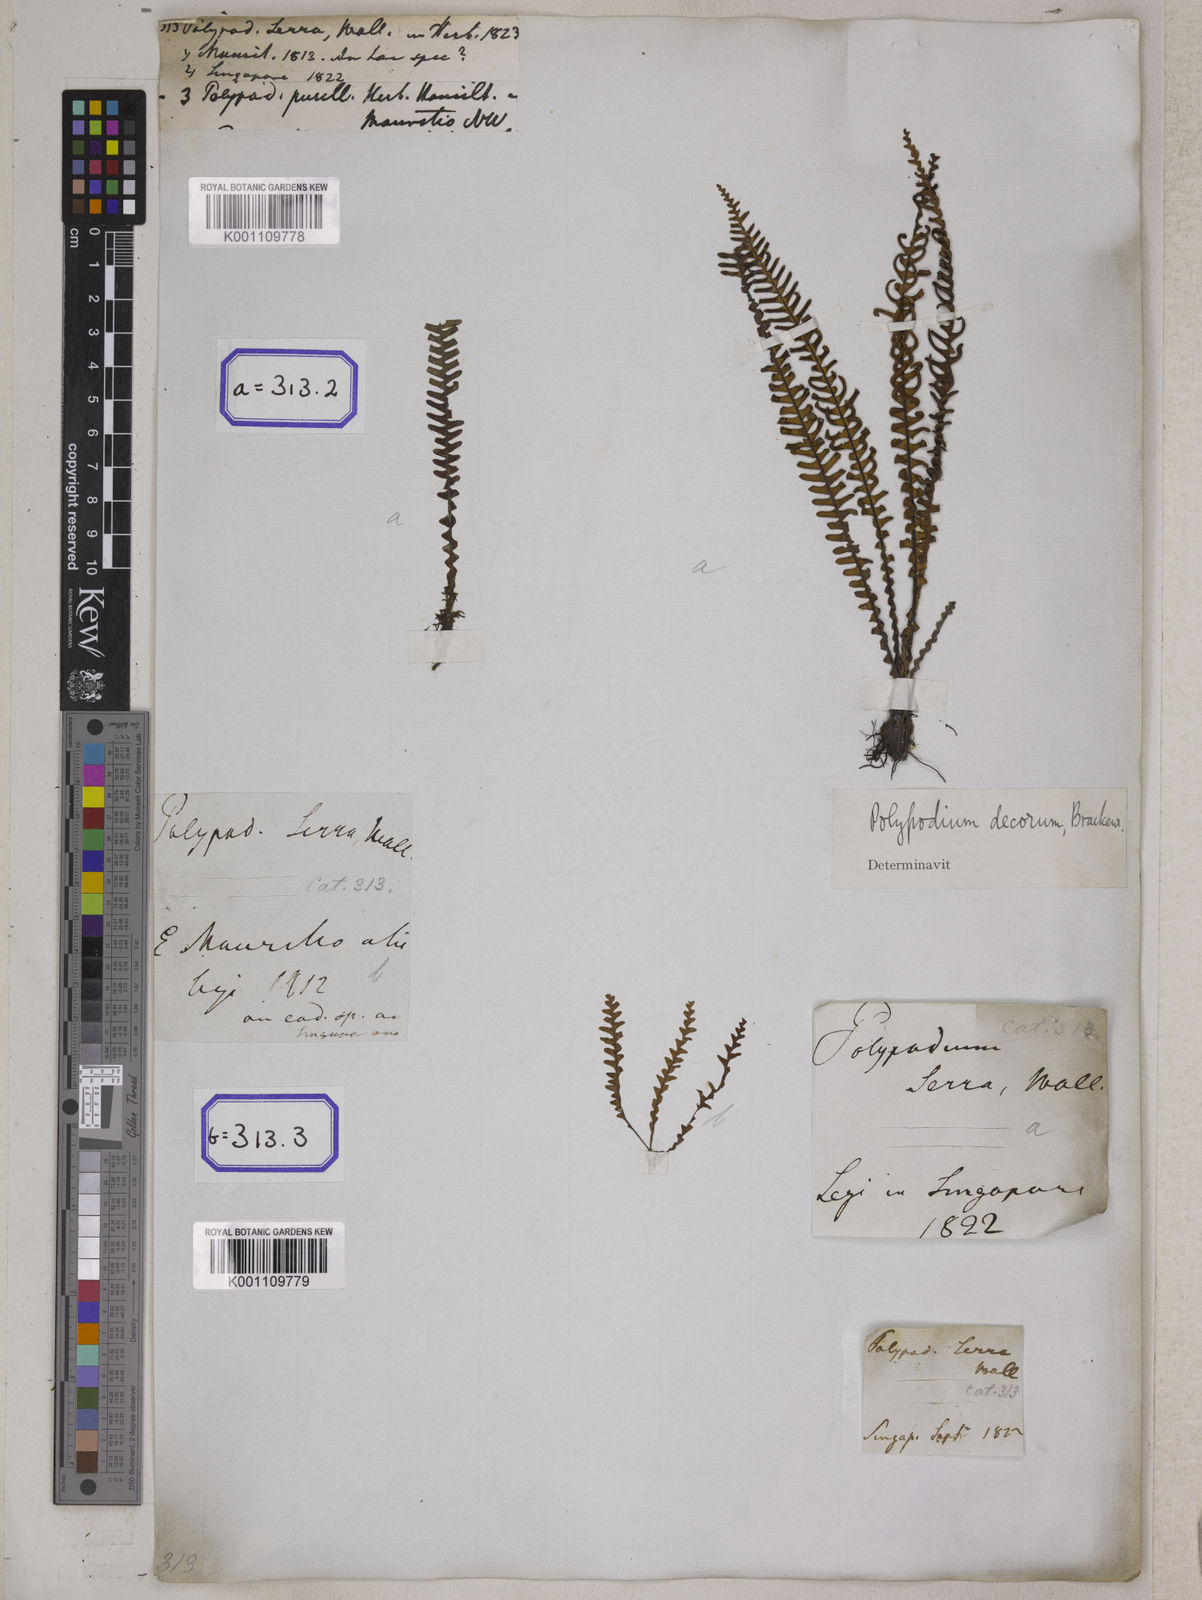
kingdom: Plantae
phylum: Tracheophyta
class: Polypodiopsida
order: Polypodiales
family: Polypodiaceae
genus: Ctenopterella
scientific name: Ctenopterella blechnoides
